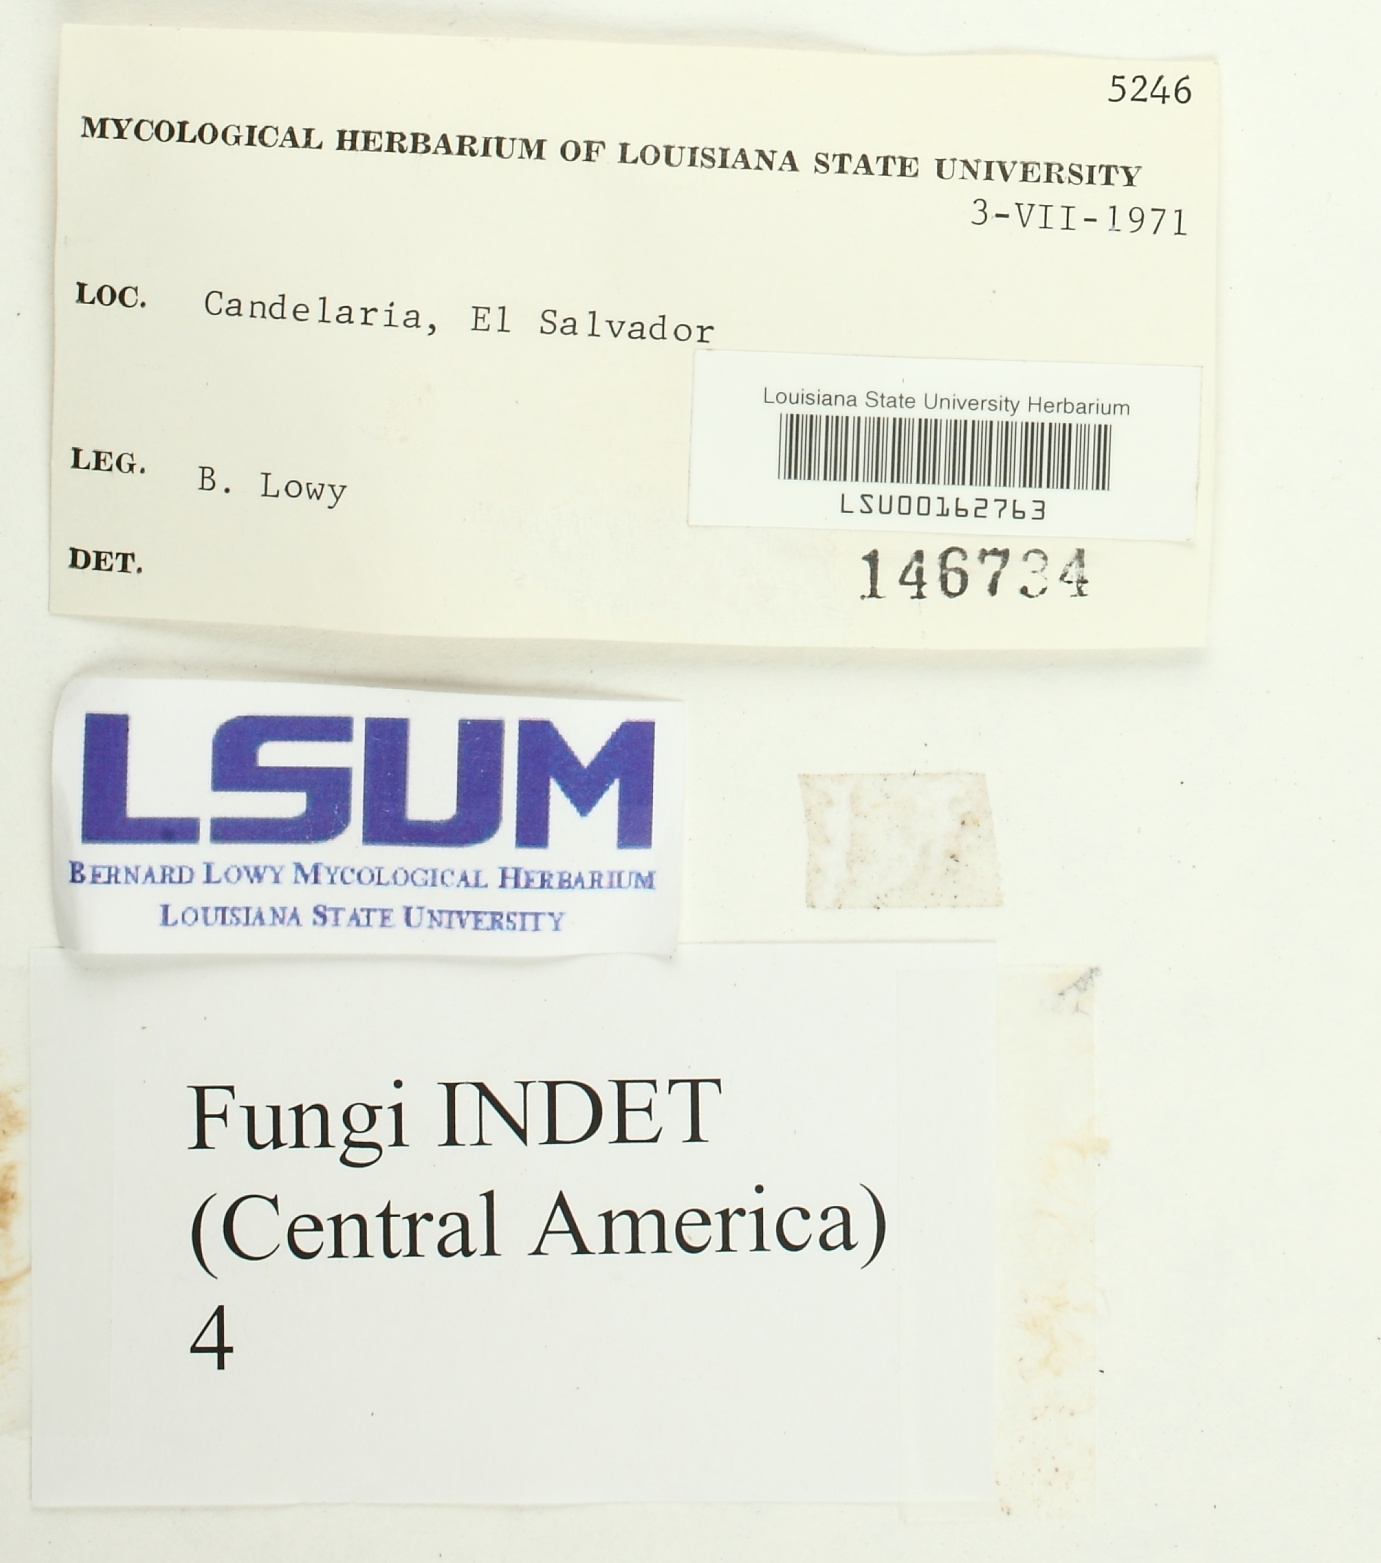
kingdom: Fungi
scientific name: Fungi
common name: Fungi
